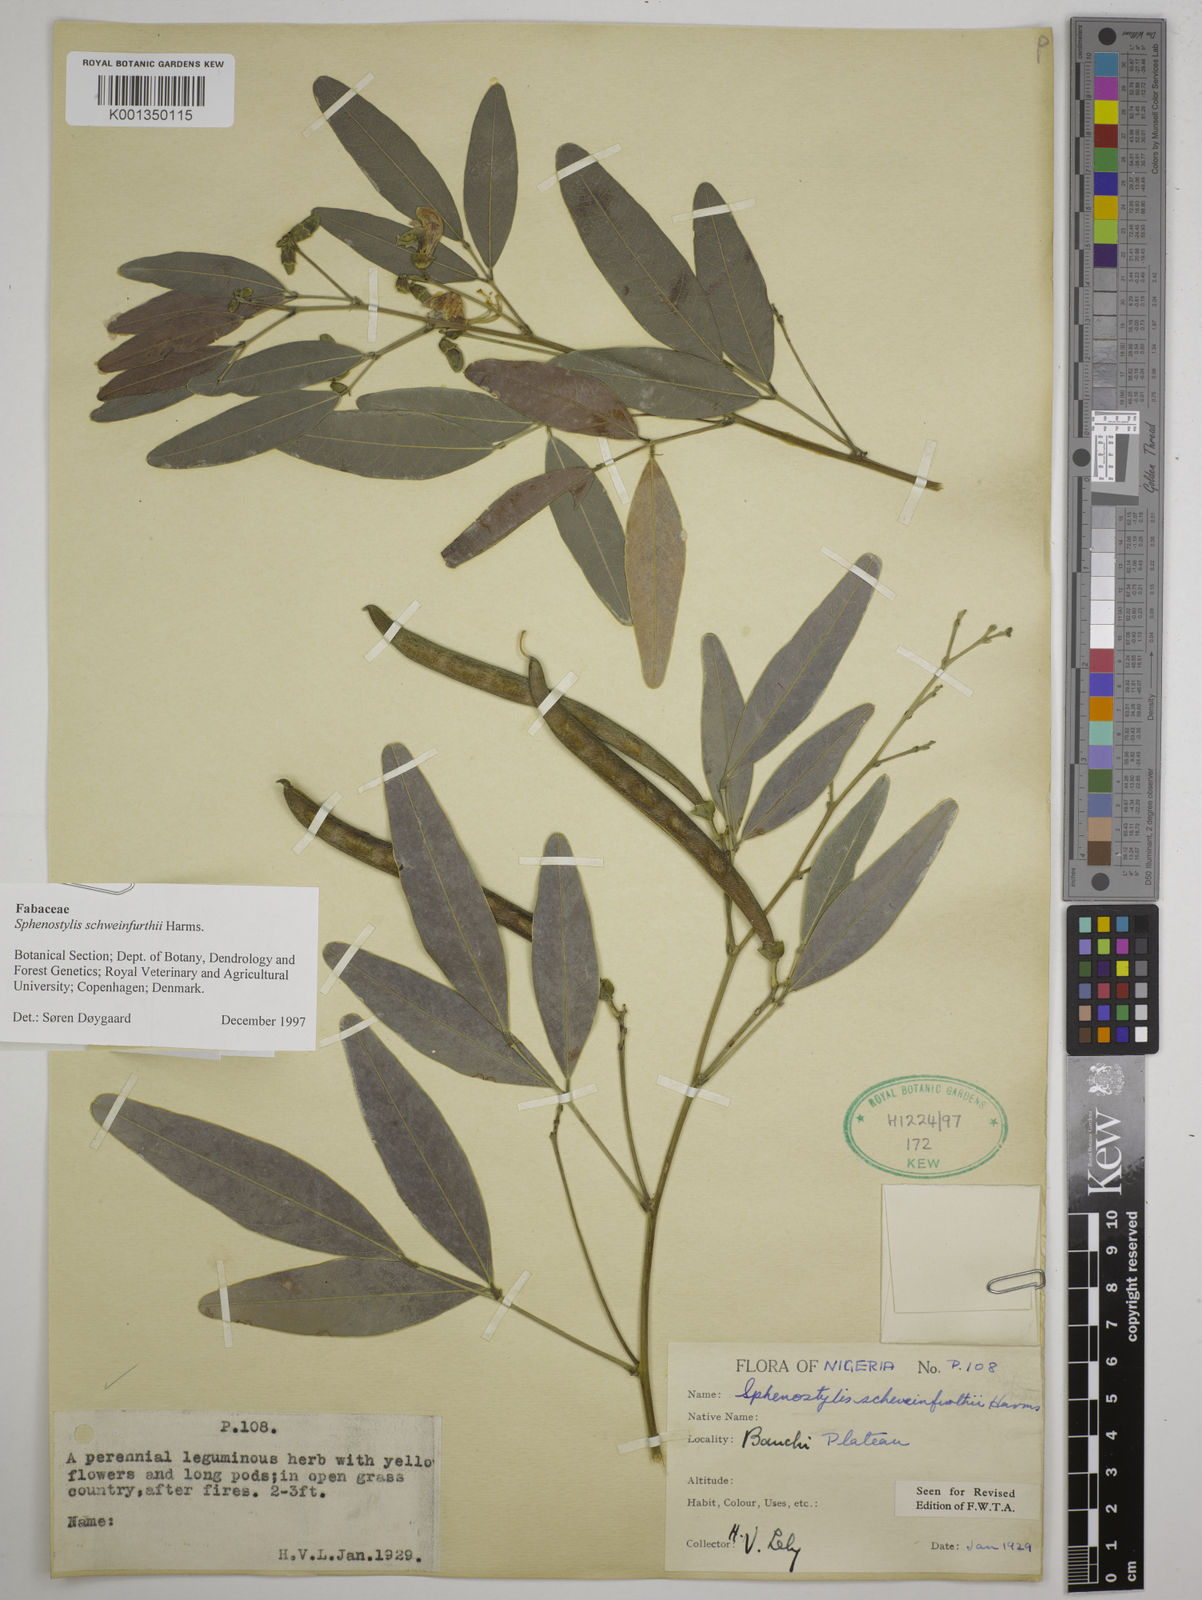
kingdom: Plantae
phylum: Tracheophyta
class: Magnoliopsida
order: Fabales
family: Fabaceae
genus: Sphenostylis
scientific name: Sphenostylis schweinfurthii
